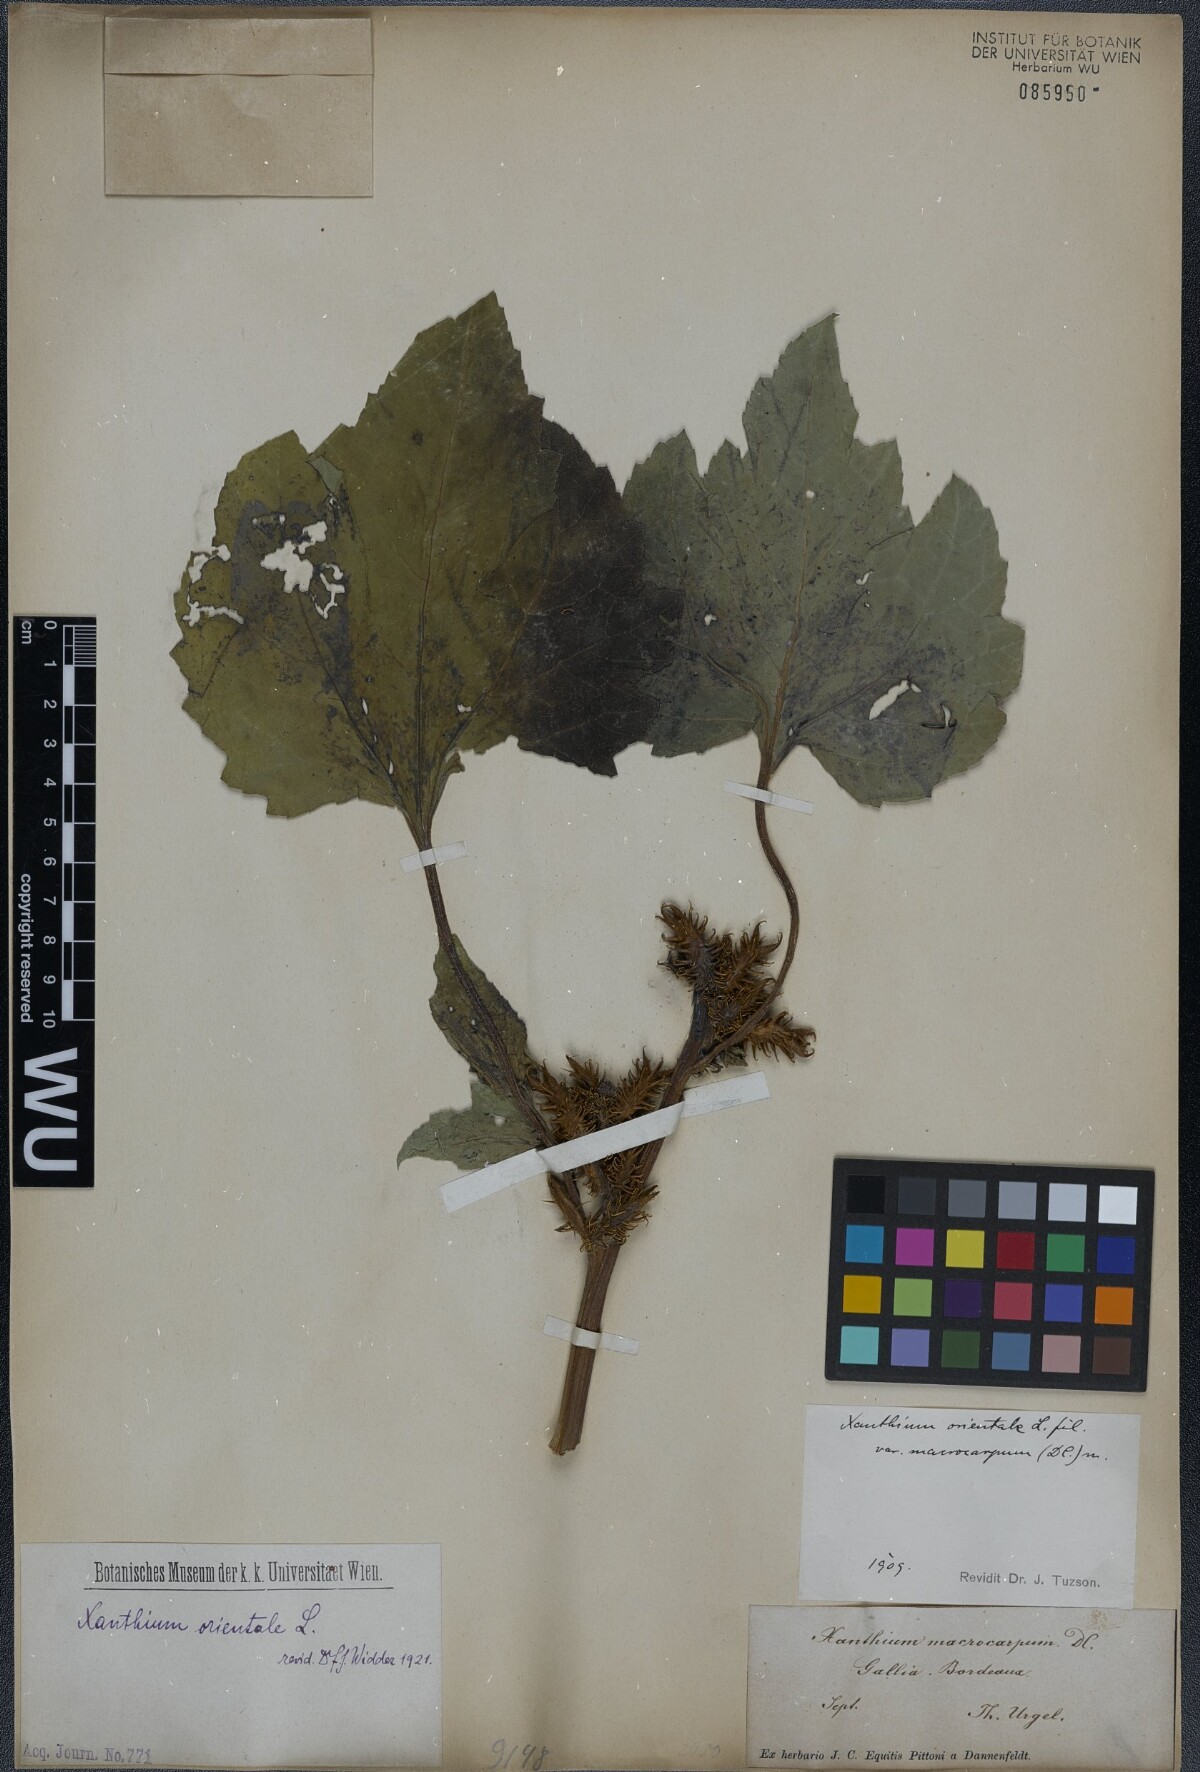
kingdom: Plantae
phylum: Tracheophyta
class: Magnoliopsida
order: Asterales
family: Asteraceae
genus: Xanthium
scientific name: Xanthium orientale
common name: Californian burr
